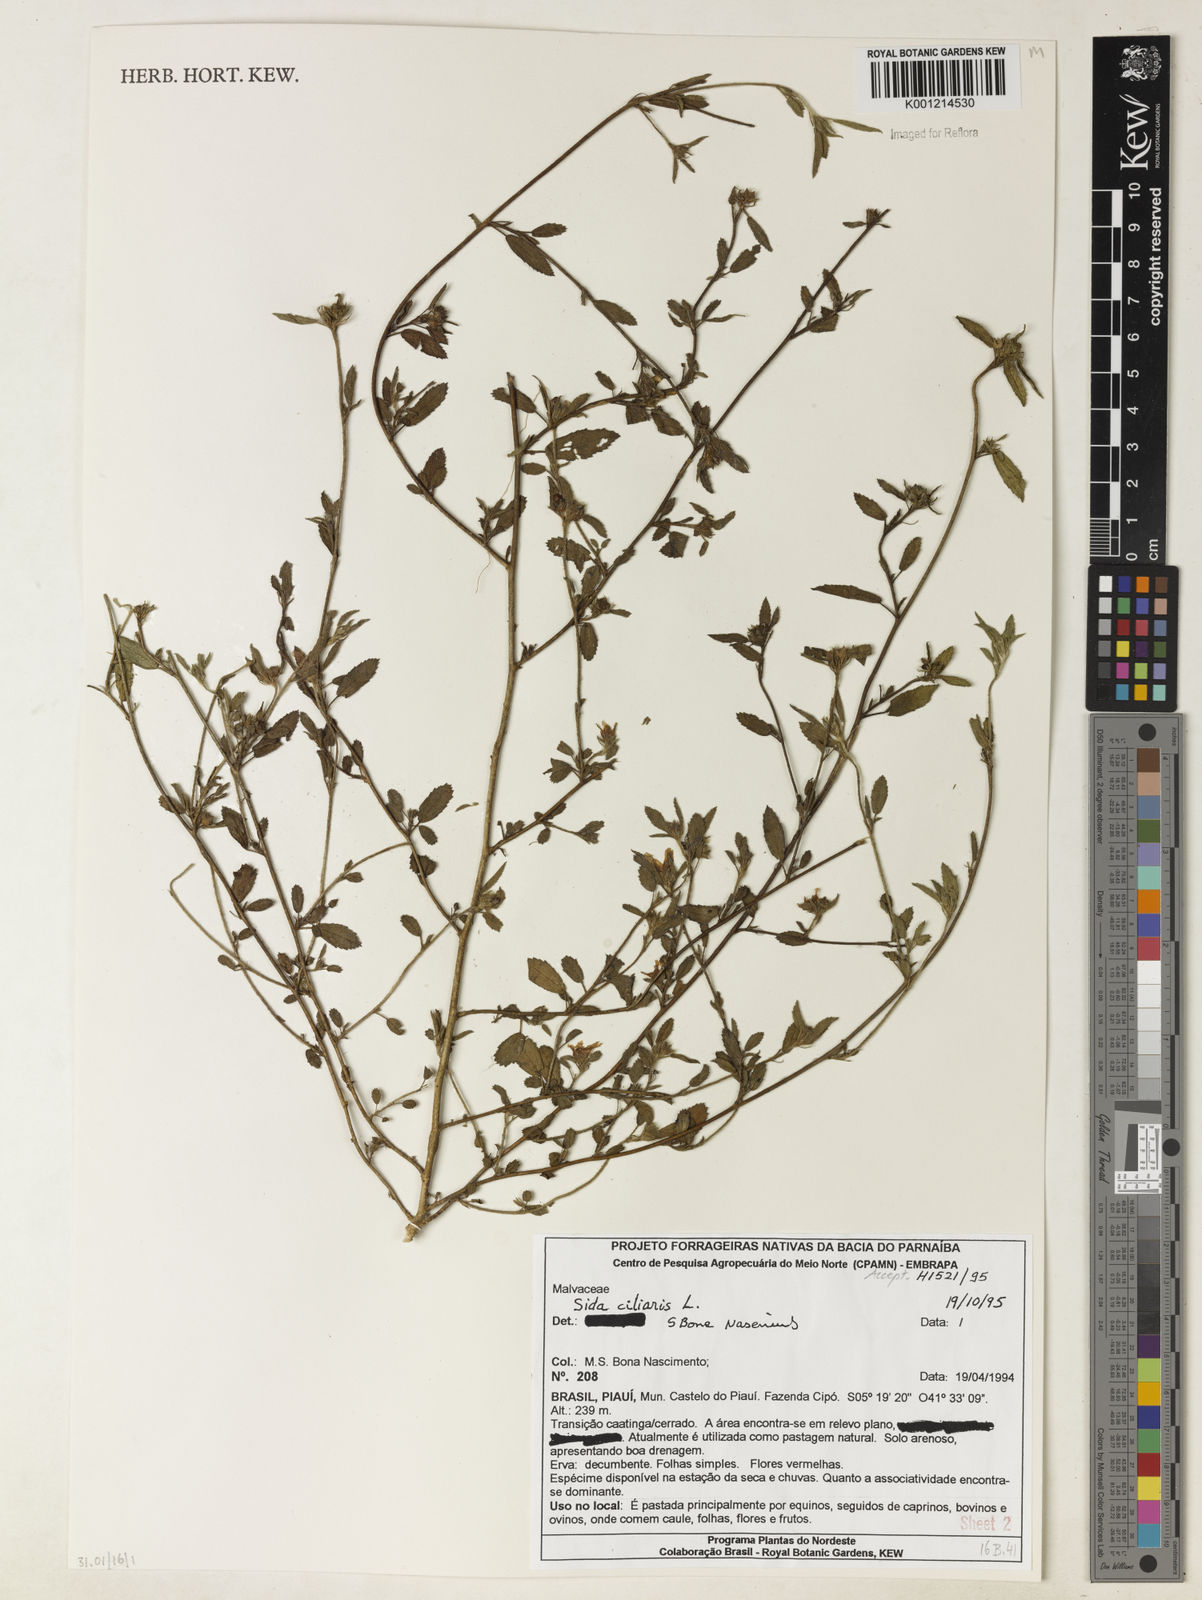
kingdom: Plantae
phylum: Tracheophyta
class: Magnoliopsida
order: Malvales
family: Malvaceae
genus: Sida
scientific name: Sida ciliaris
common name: Bracted fanpetals
